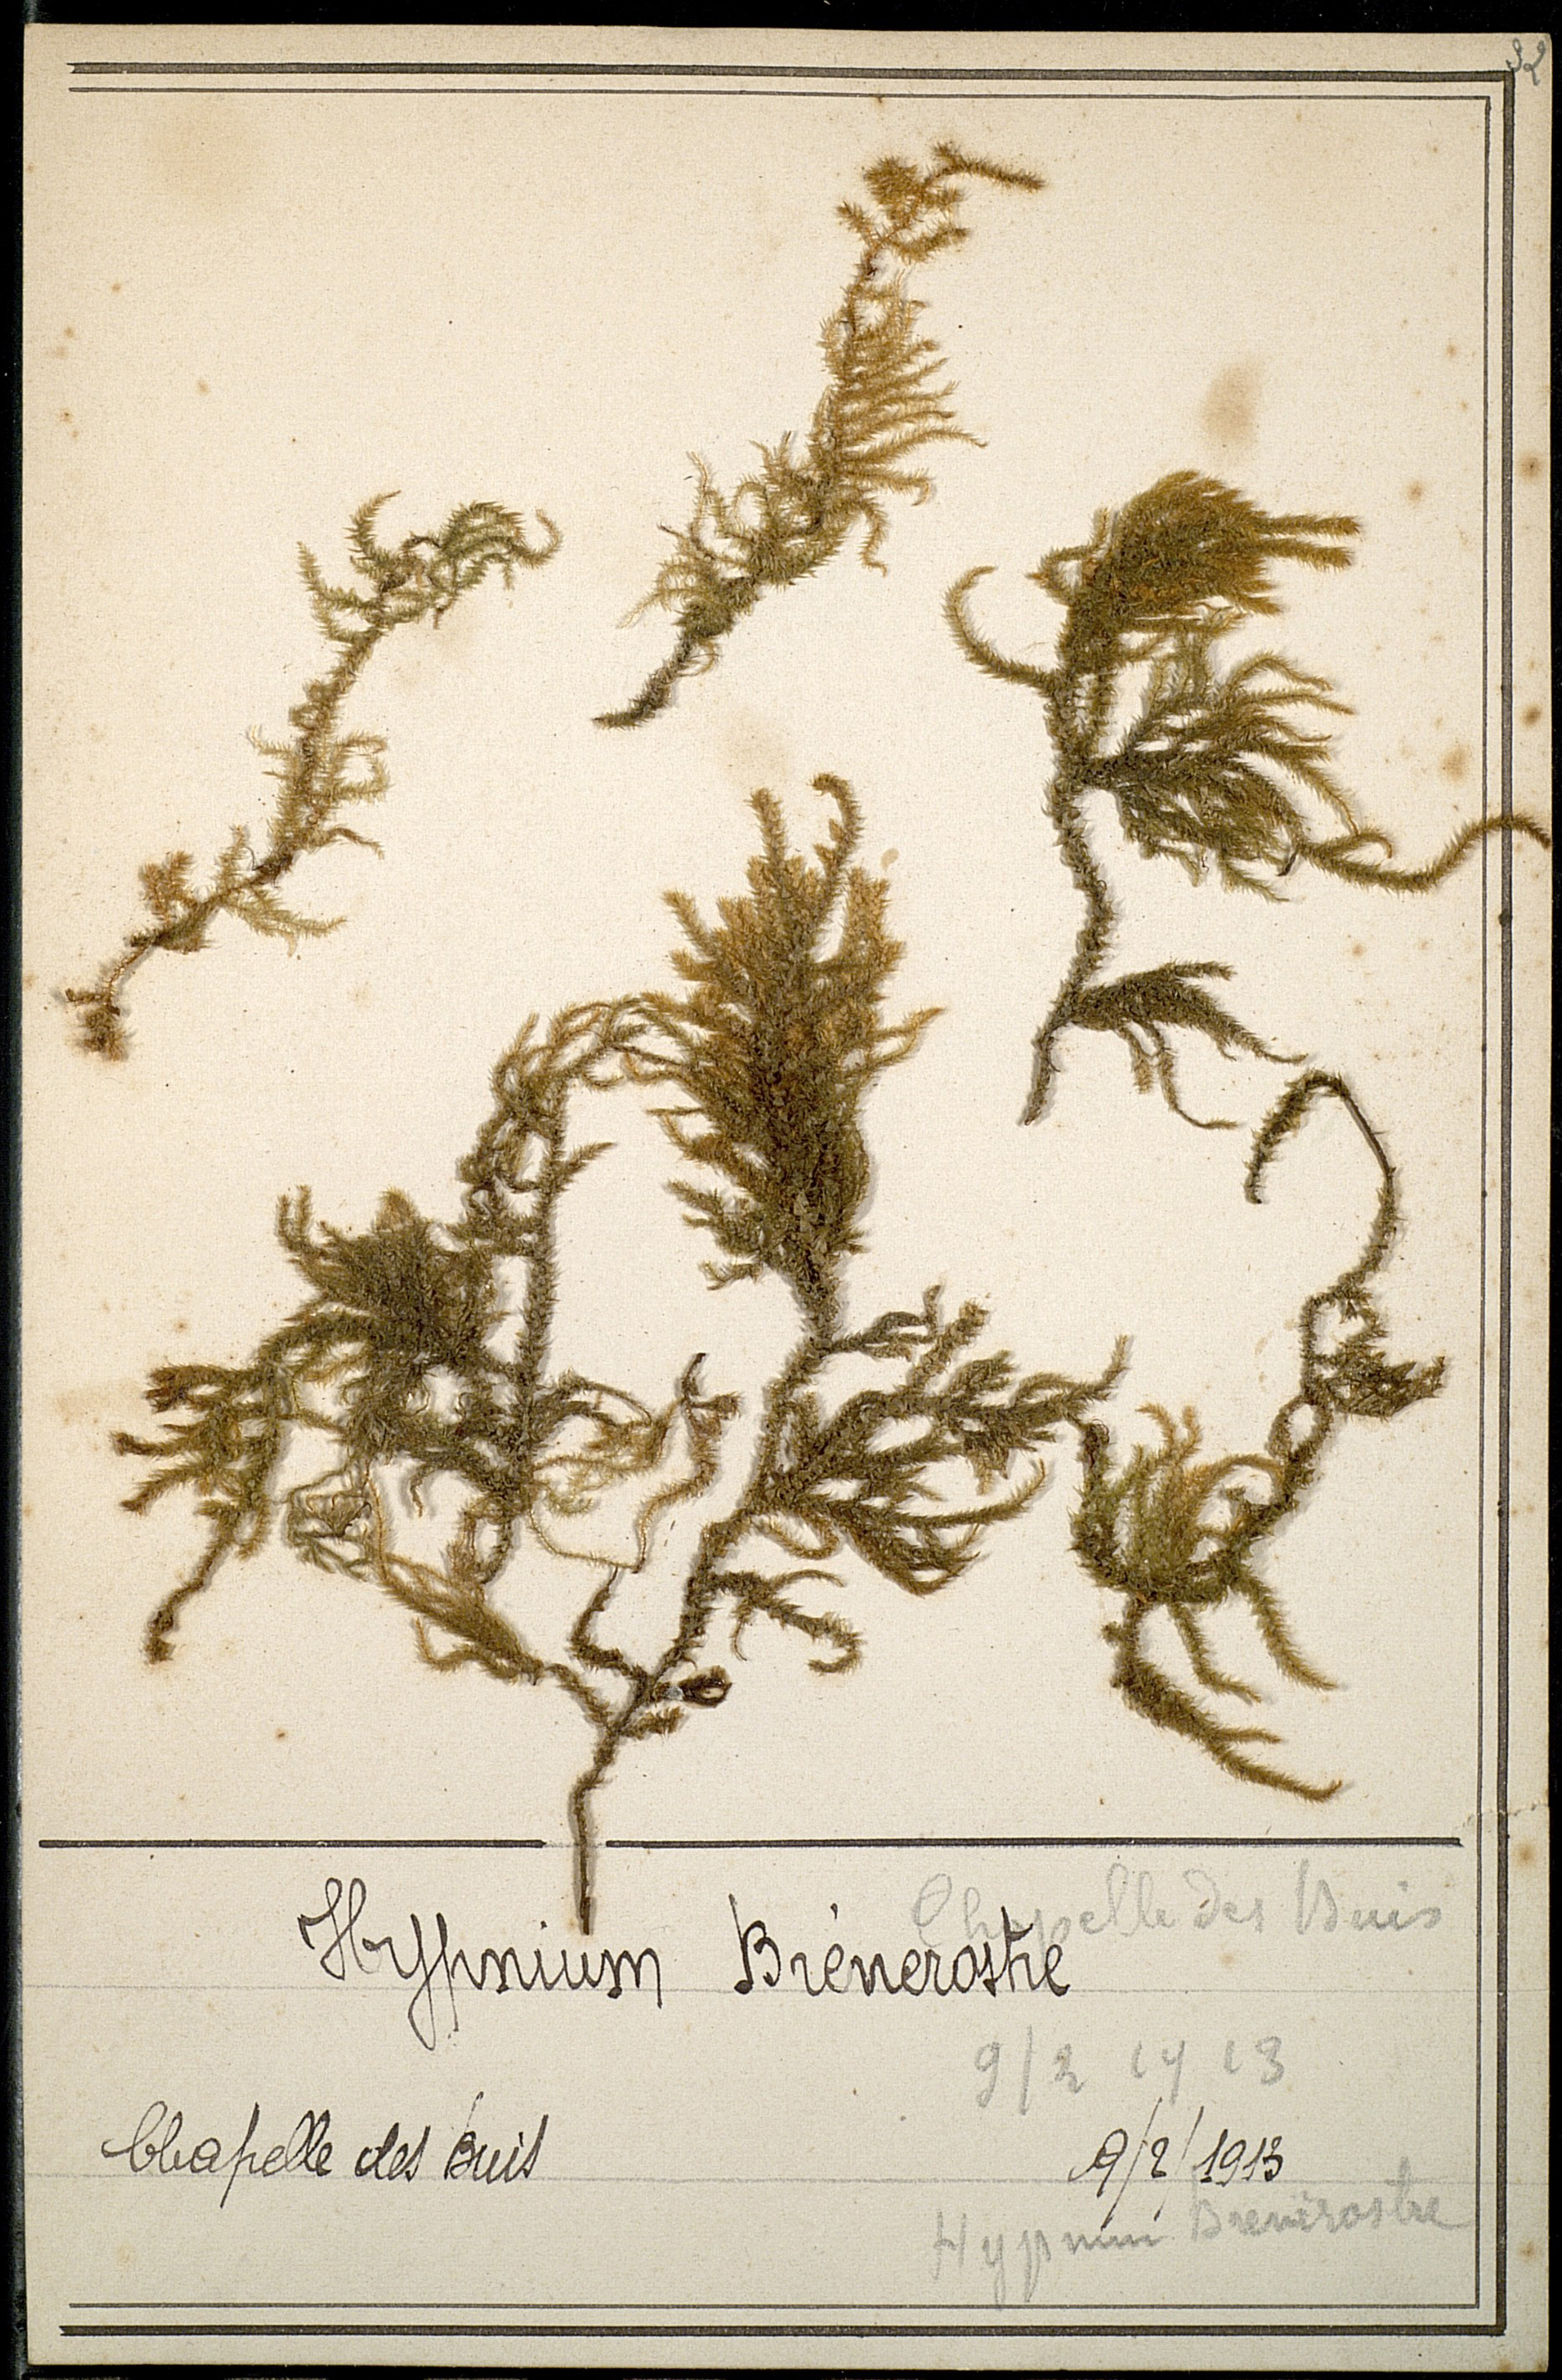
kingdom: Plantae
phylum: Bryophyta
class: Bryopsida
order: Hypnales
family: Hylocomiaceae
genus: Loeskeobryum
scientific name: Loeskeobryum brevirostre
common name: Short-beaked wood-moss
